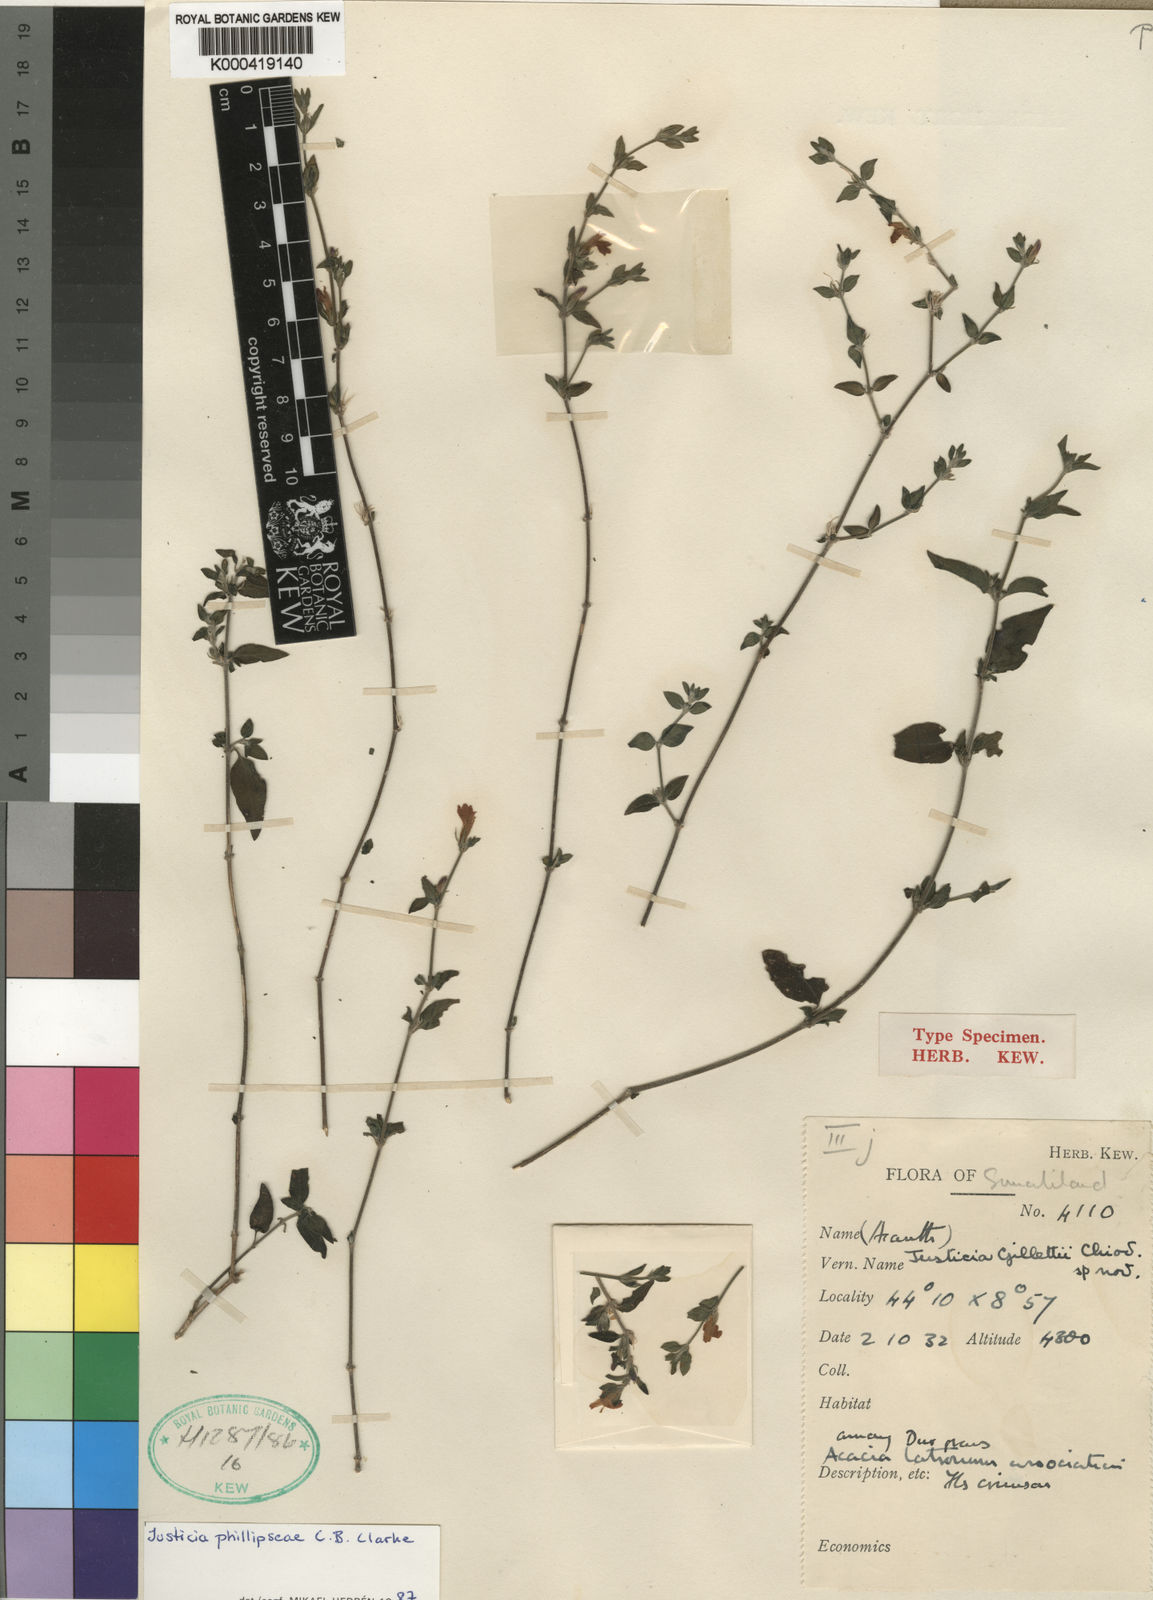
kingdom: Plantae
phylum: Tracheophyta
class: Magnoliopsida
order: Lamiales
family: Acanthaceae
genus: Justicia
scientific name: Justicia
